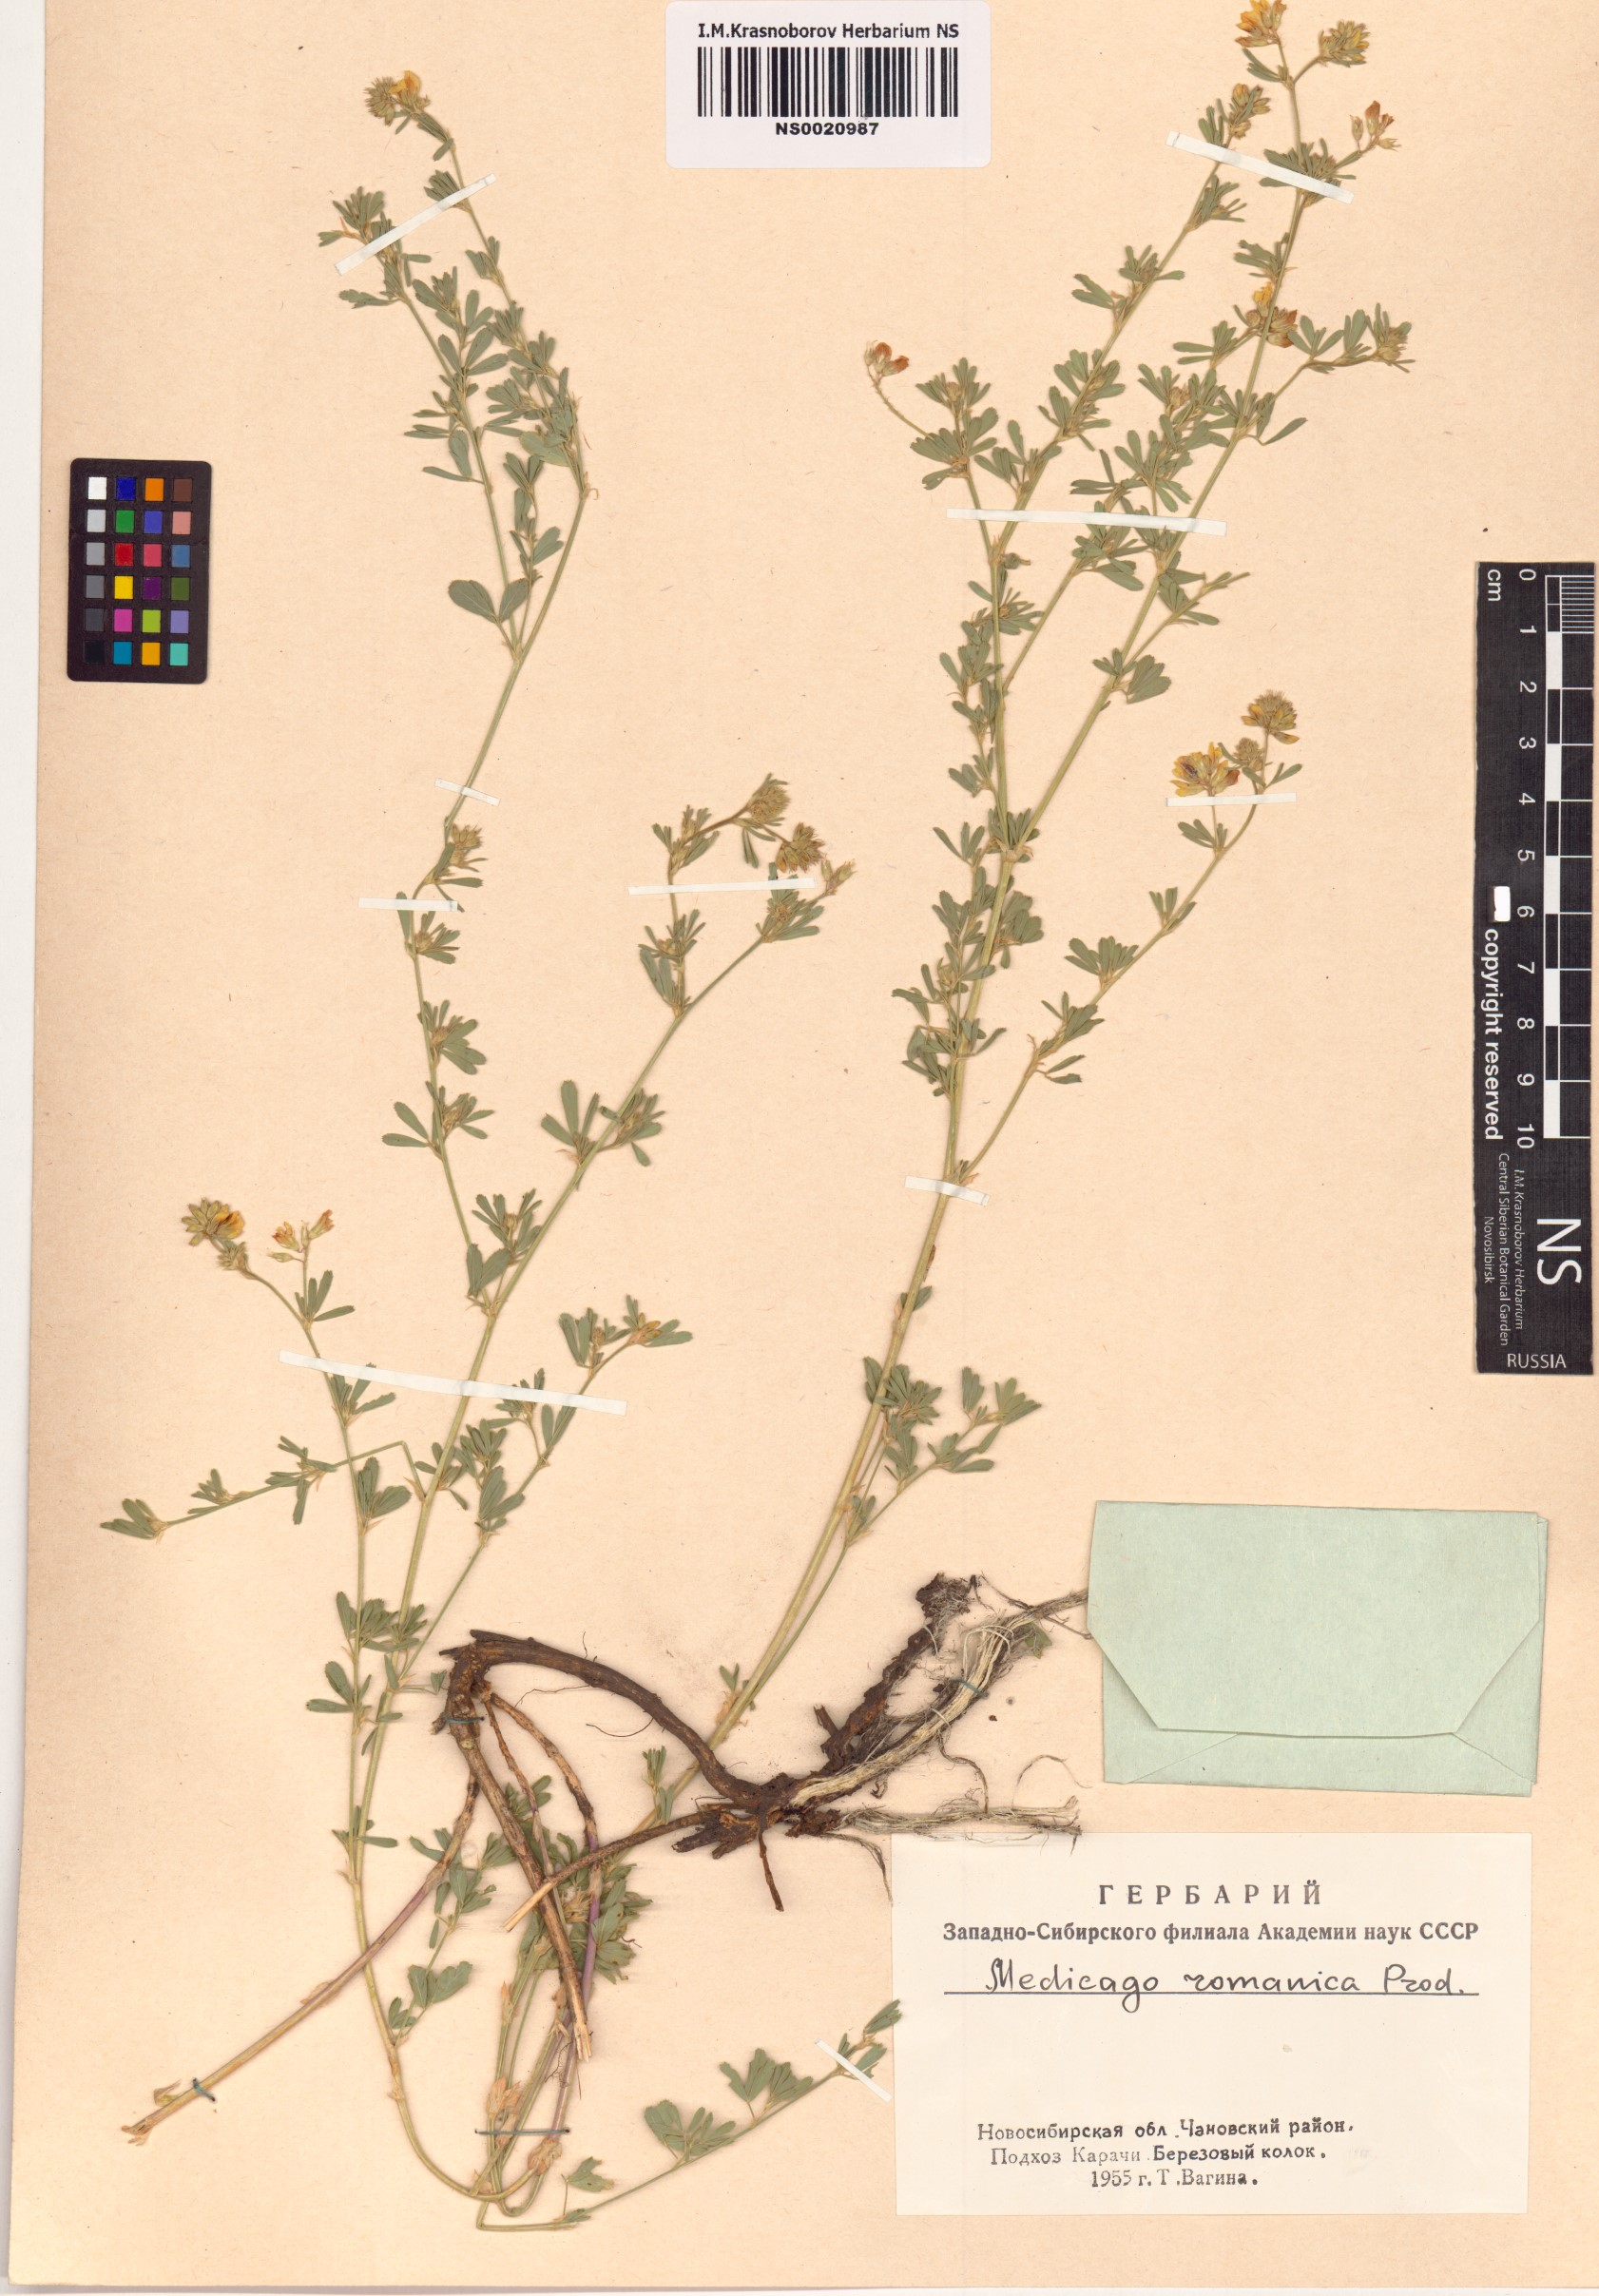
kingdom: Plantae
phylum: Tracheophyta
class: Magnoliopsida
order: Fabales
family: Fabaceae
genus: Medicago
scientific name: Medicago falcata
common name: Sickle medick
